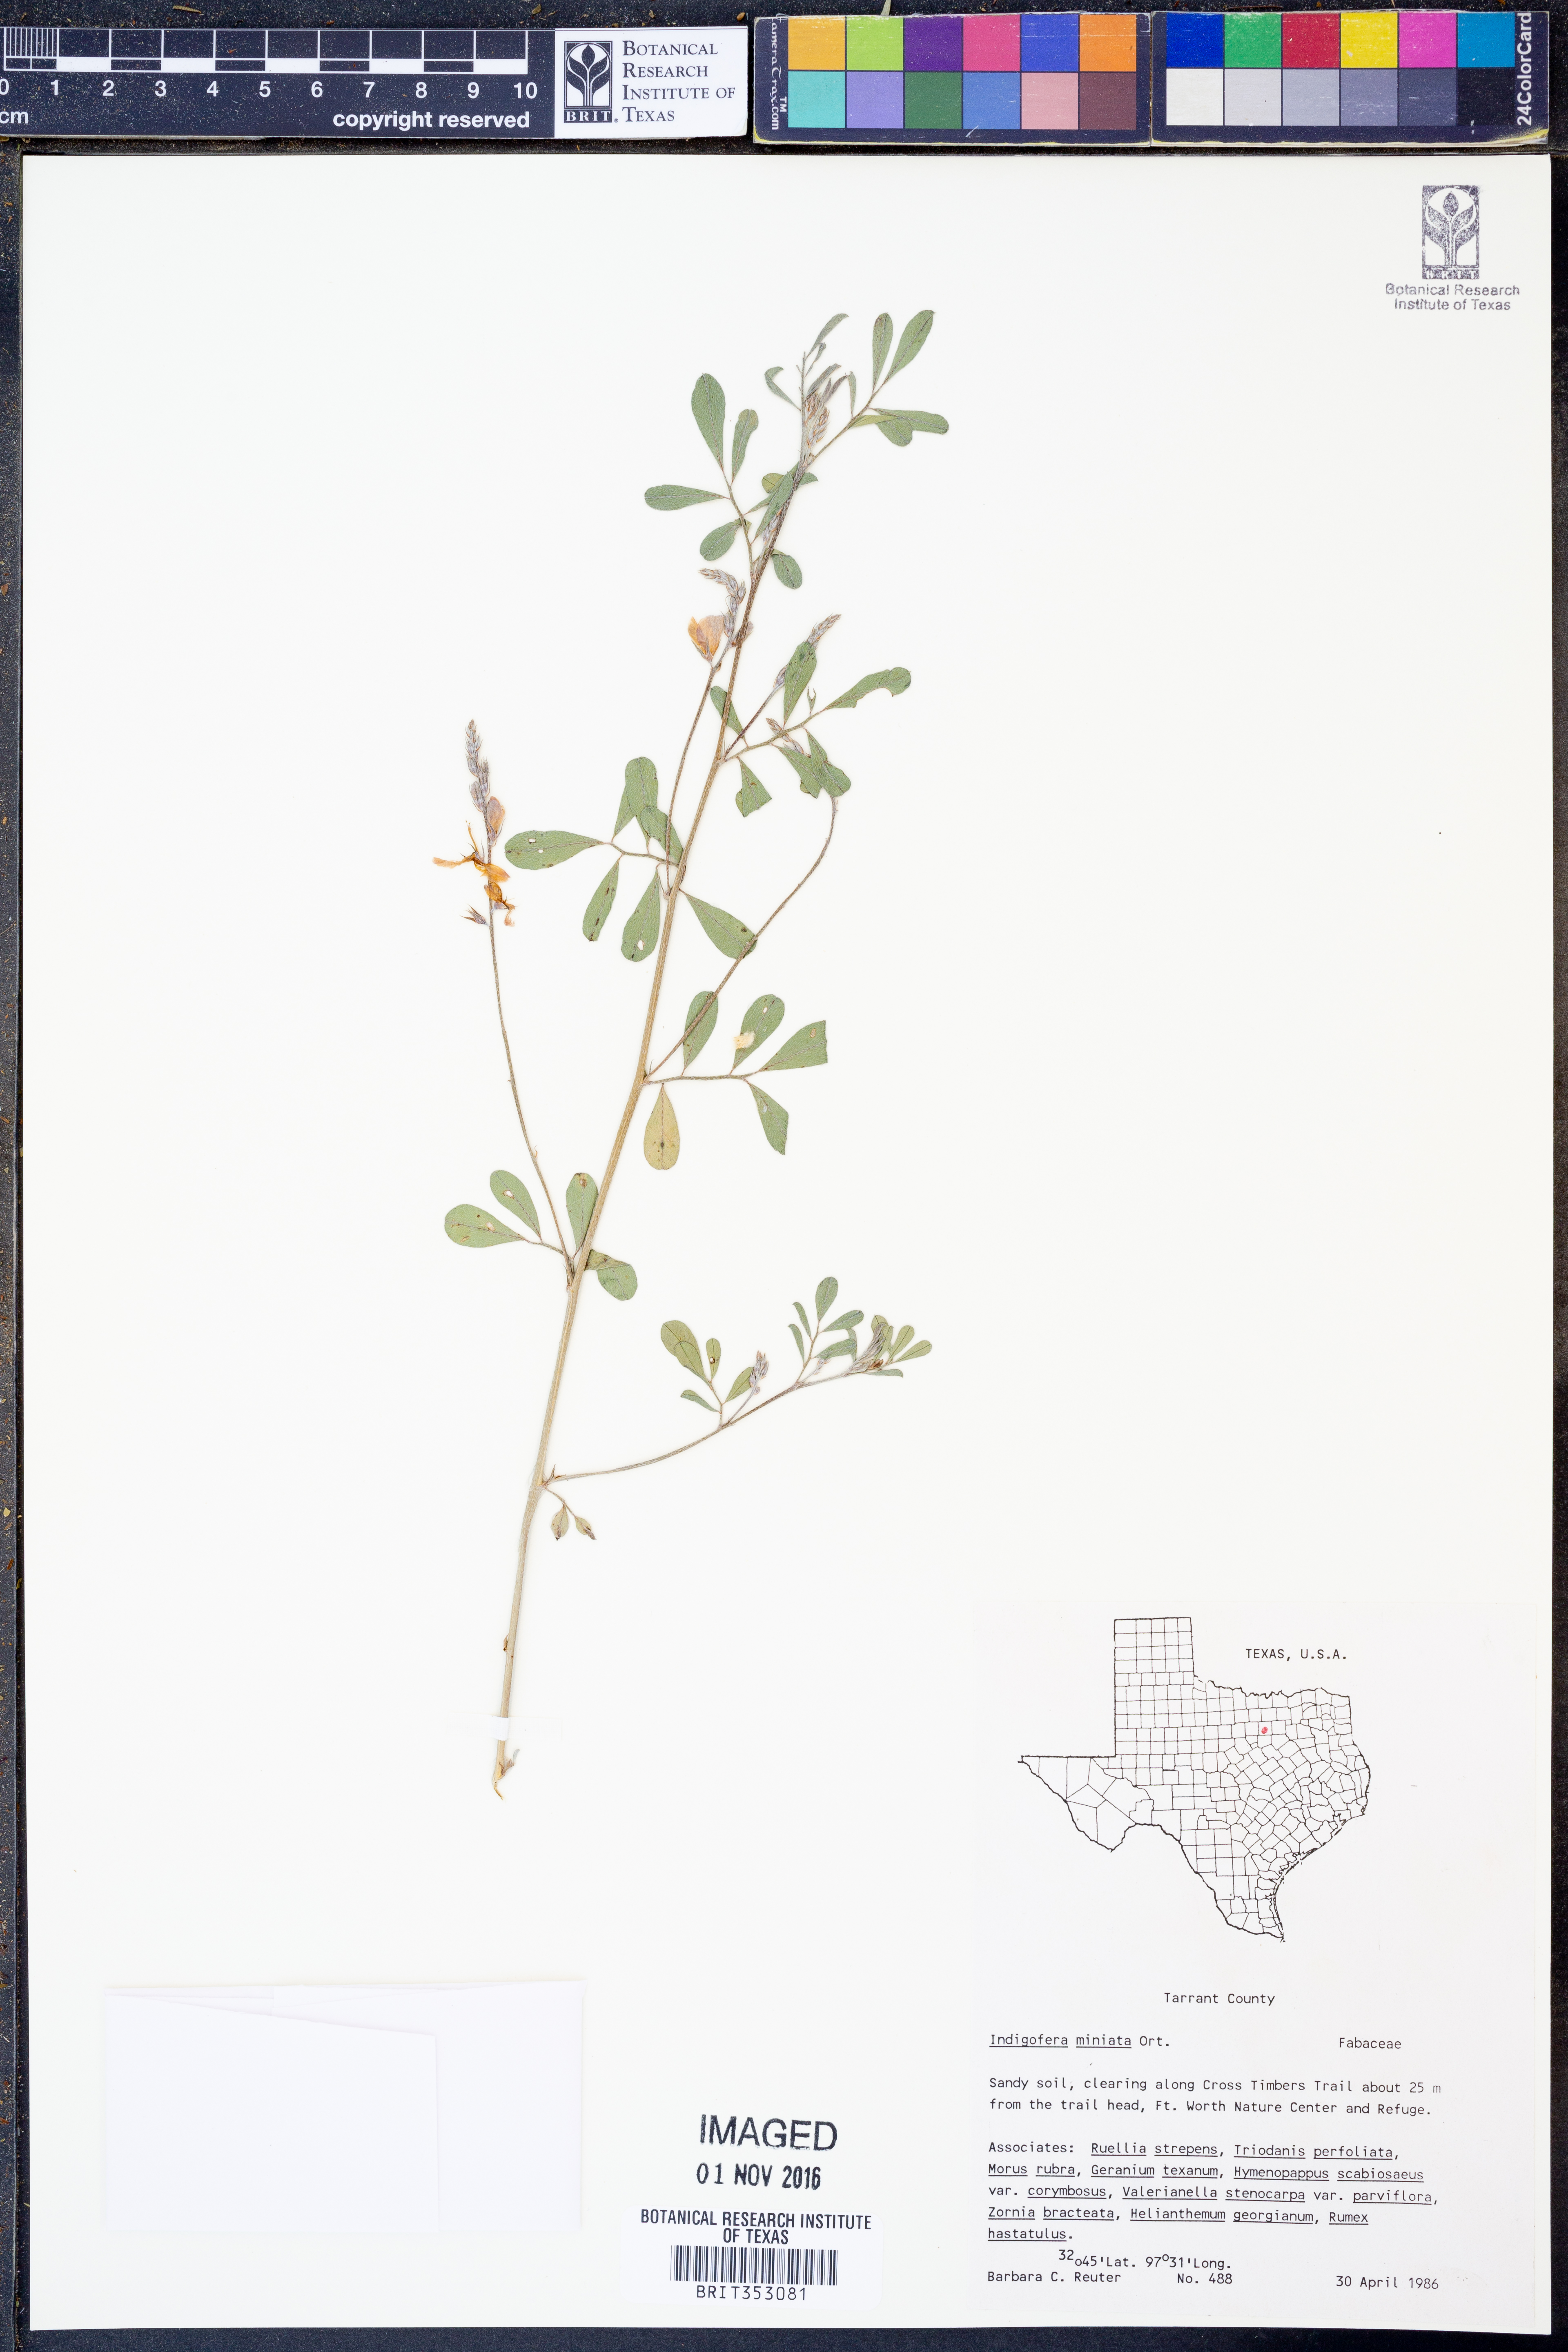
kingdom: Plantae
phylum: Tracheophyta
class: Magnoliopsida
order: Fabales
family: Fabaceae
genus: Indigofera
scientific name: Indigofera miniata
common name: Coast indigo
